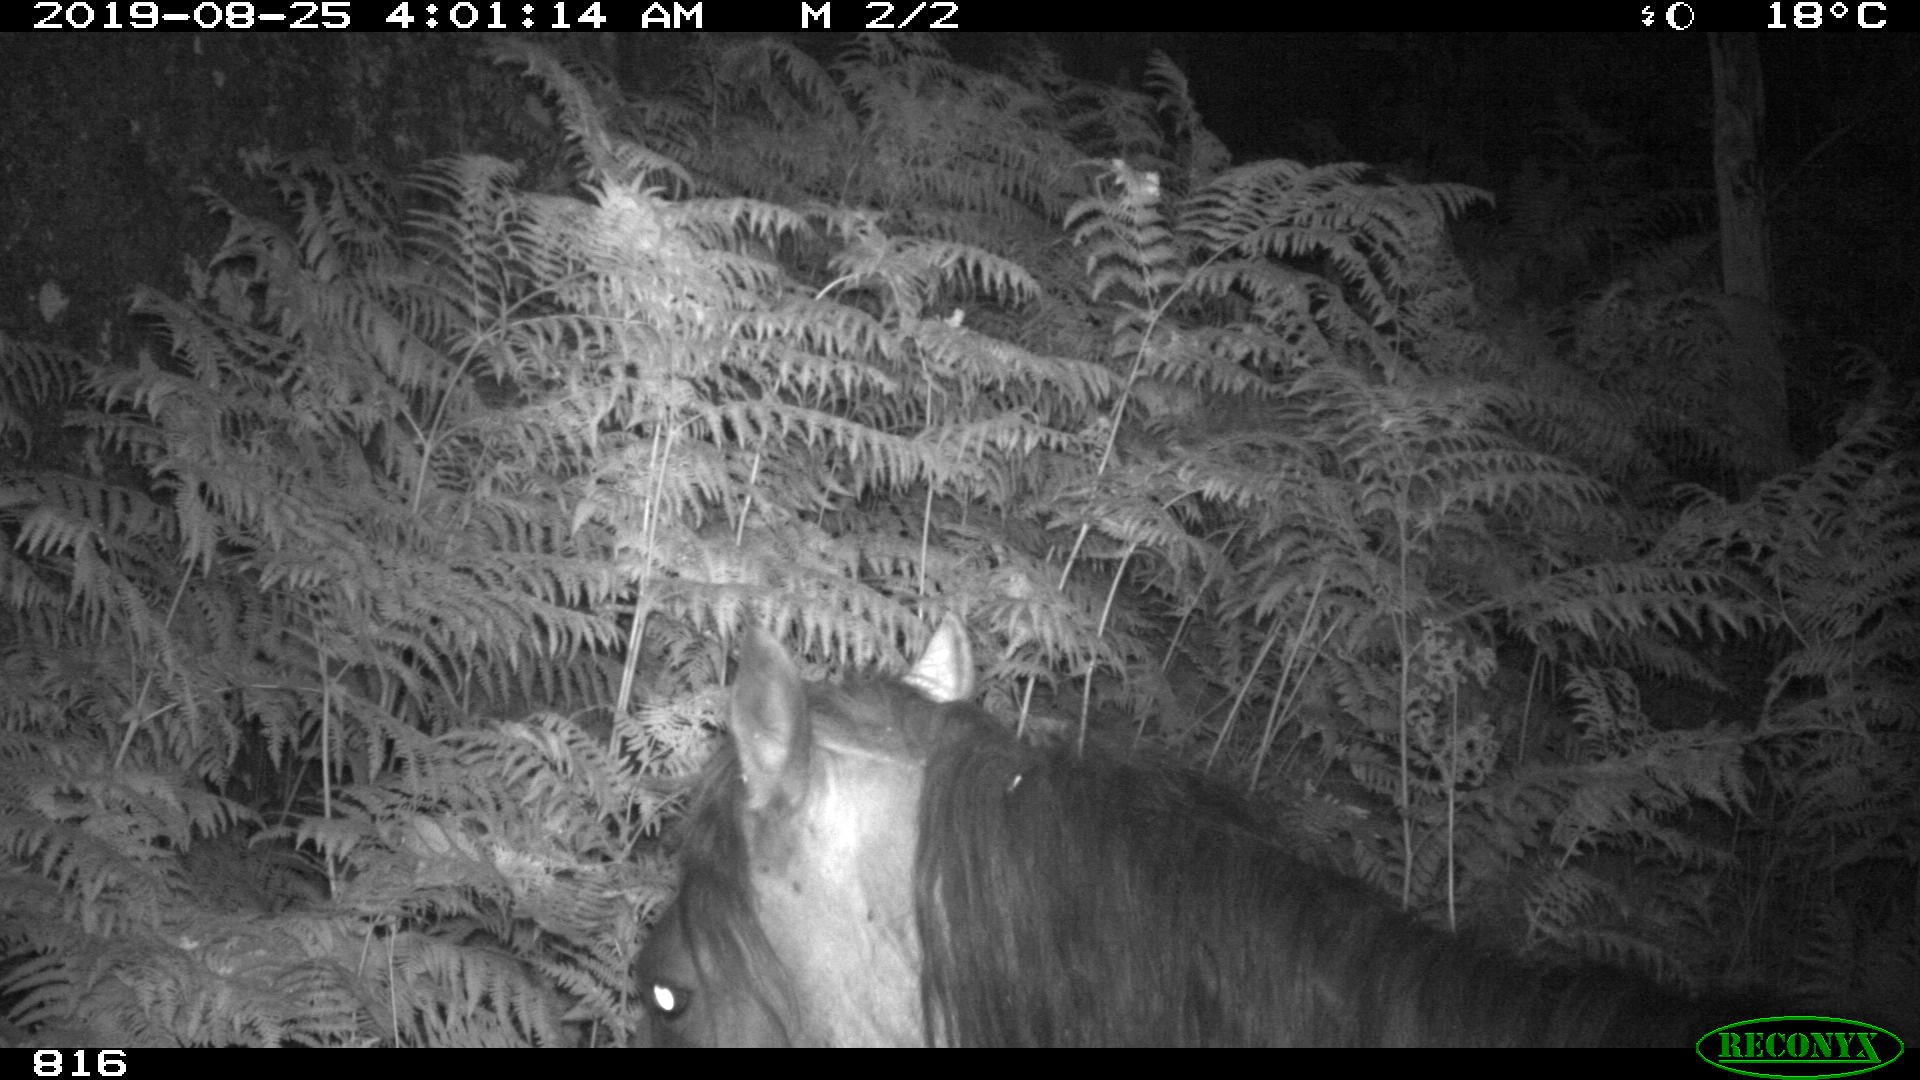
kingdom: Animalia
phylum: Chordata
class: Mammalia
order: Perissodactyla
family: Equidae
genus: Equus
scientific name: Equus caballus
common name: Horse
